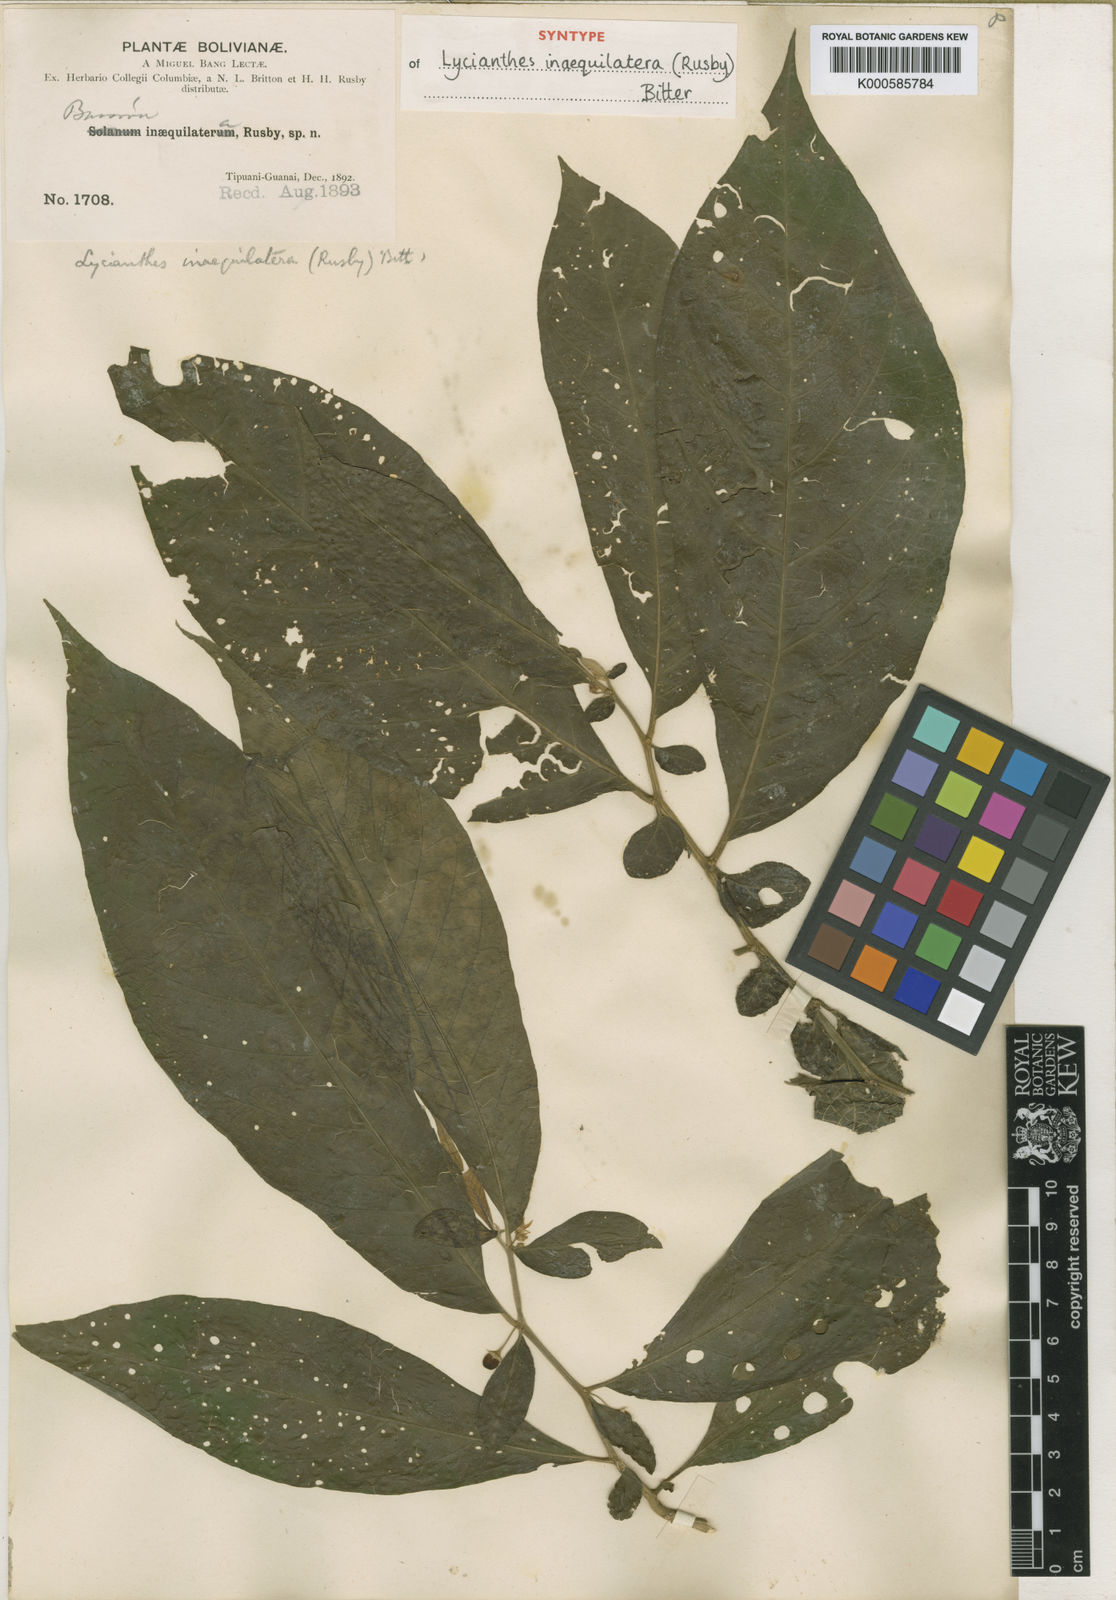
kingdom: Plantae
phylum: Tracheophyta
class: Magnoliopsida
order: Solanales
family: Solanaceae
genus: Lycianthes
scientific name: Lycianthes inaequilatera
